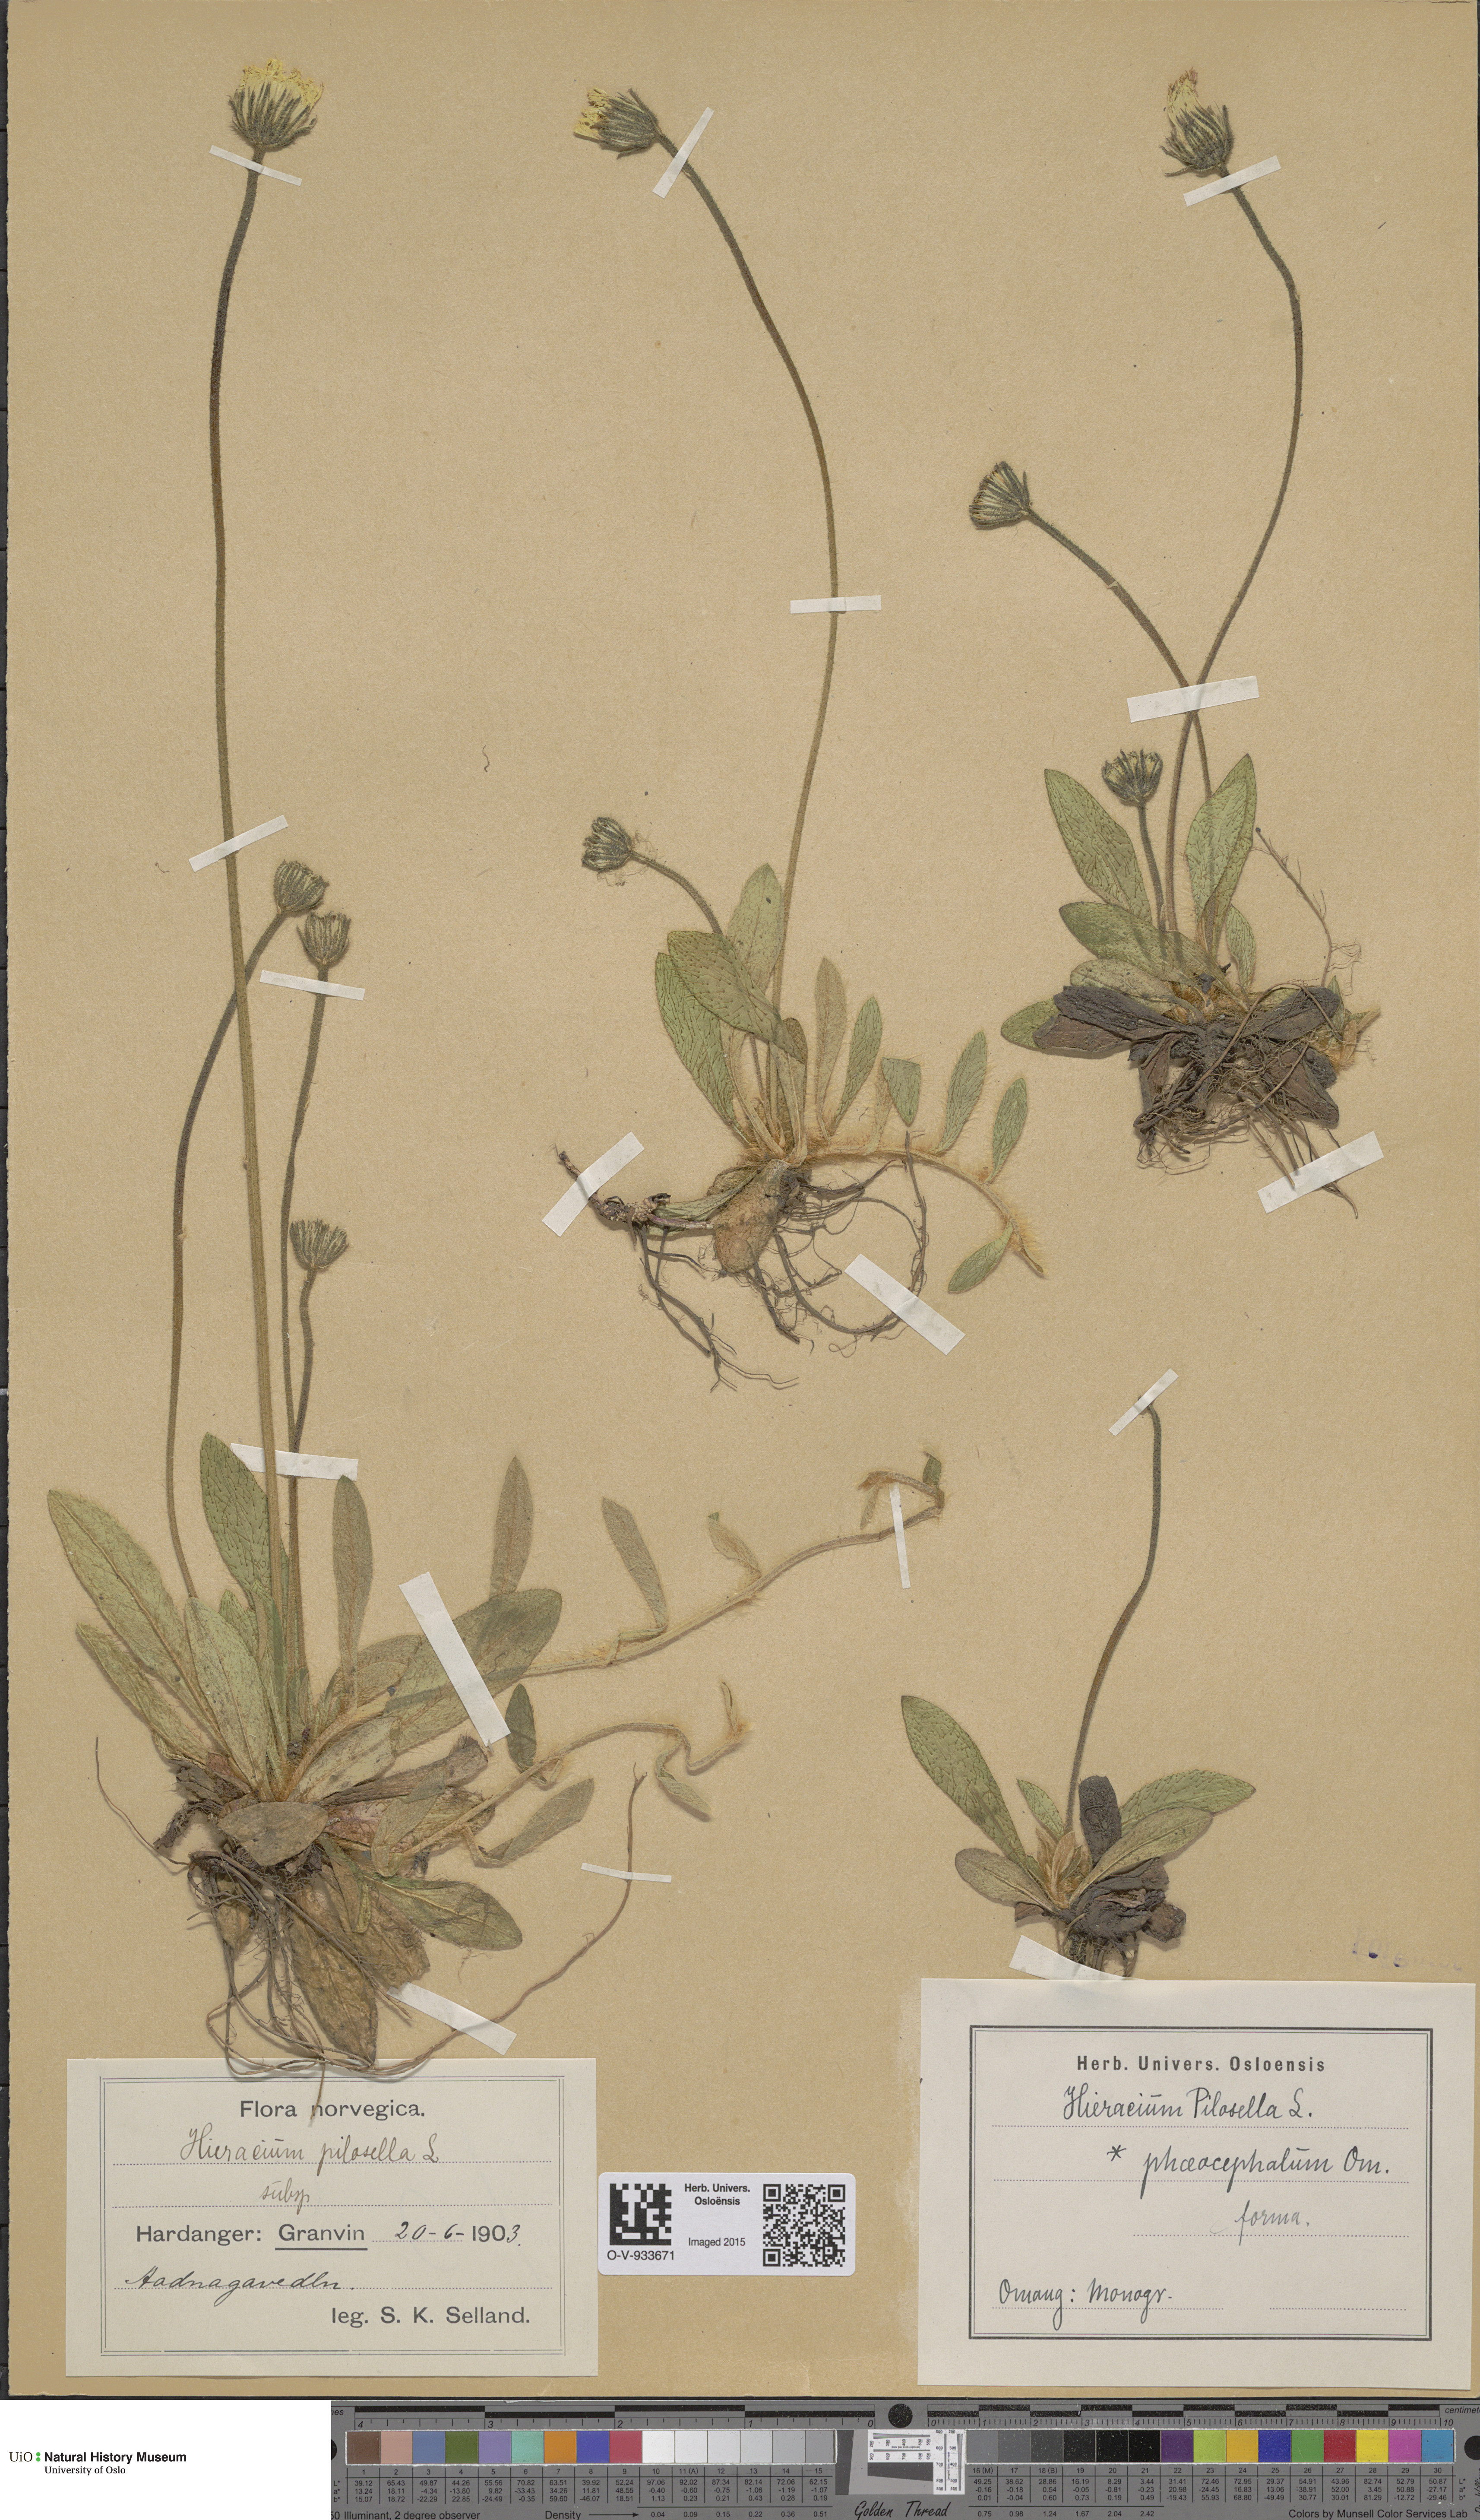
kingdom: Plantae
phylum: Tracheophyta
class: Magnoliopsida
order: Asterales
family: Asteraceae
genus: Pilosella
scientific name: Pilosella officinarum
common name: Mouse-ear hawkweed
